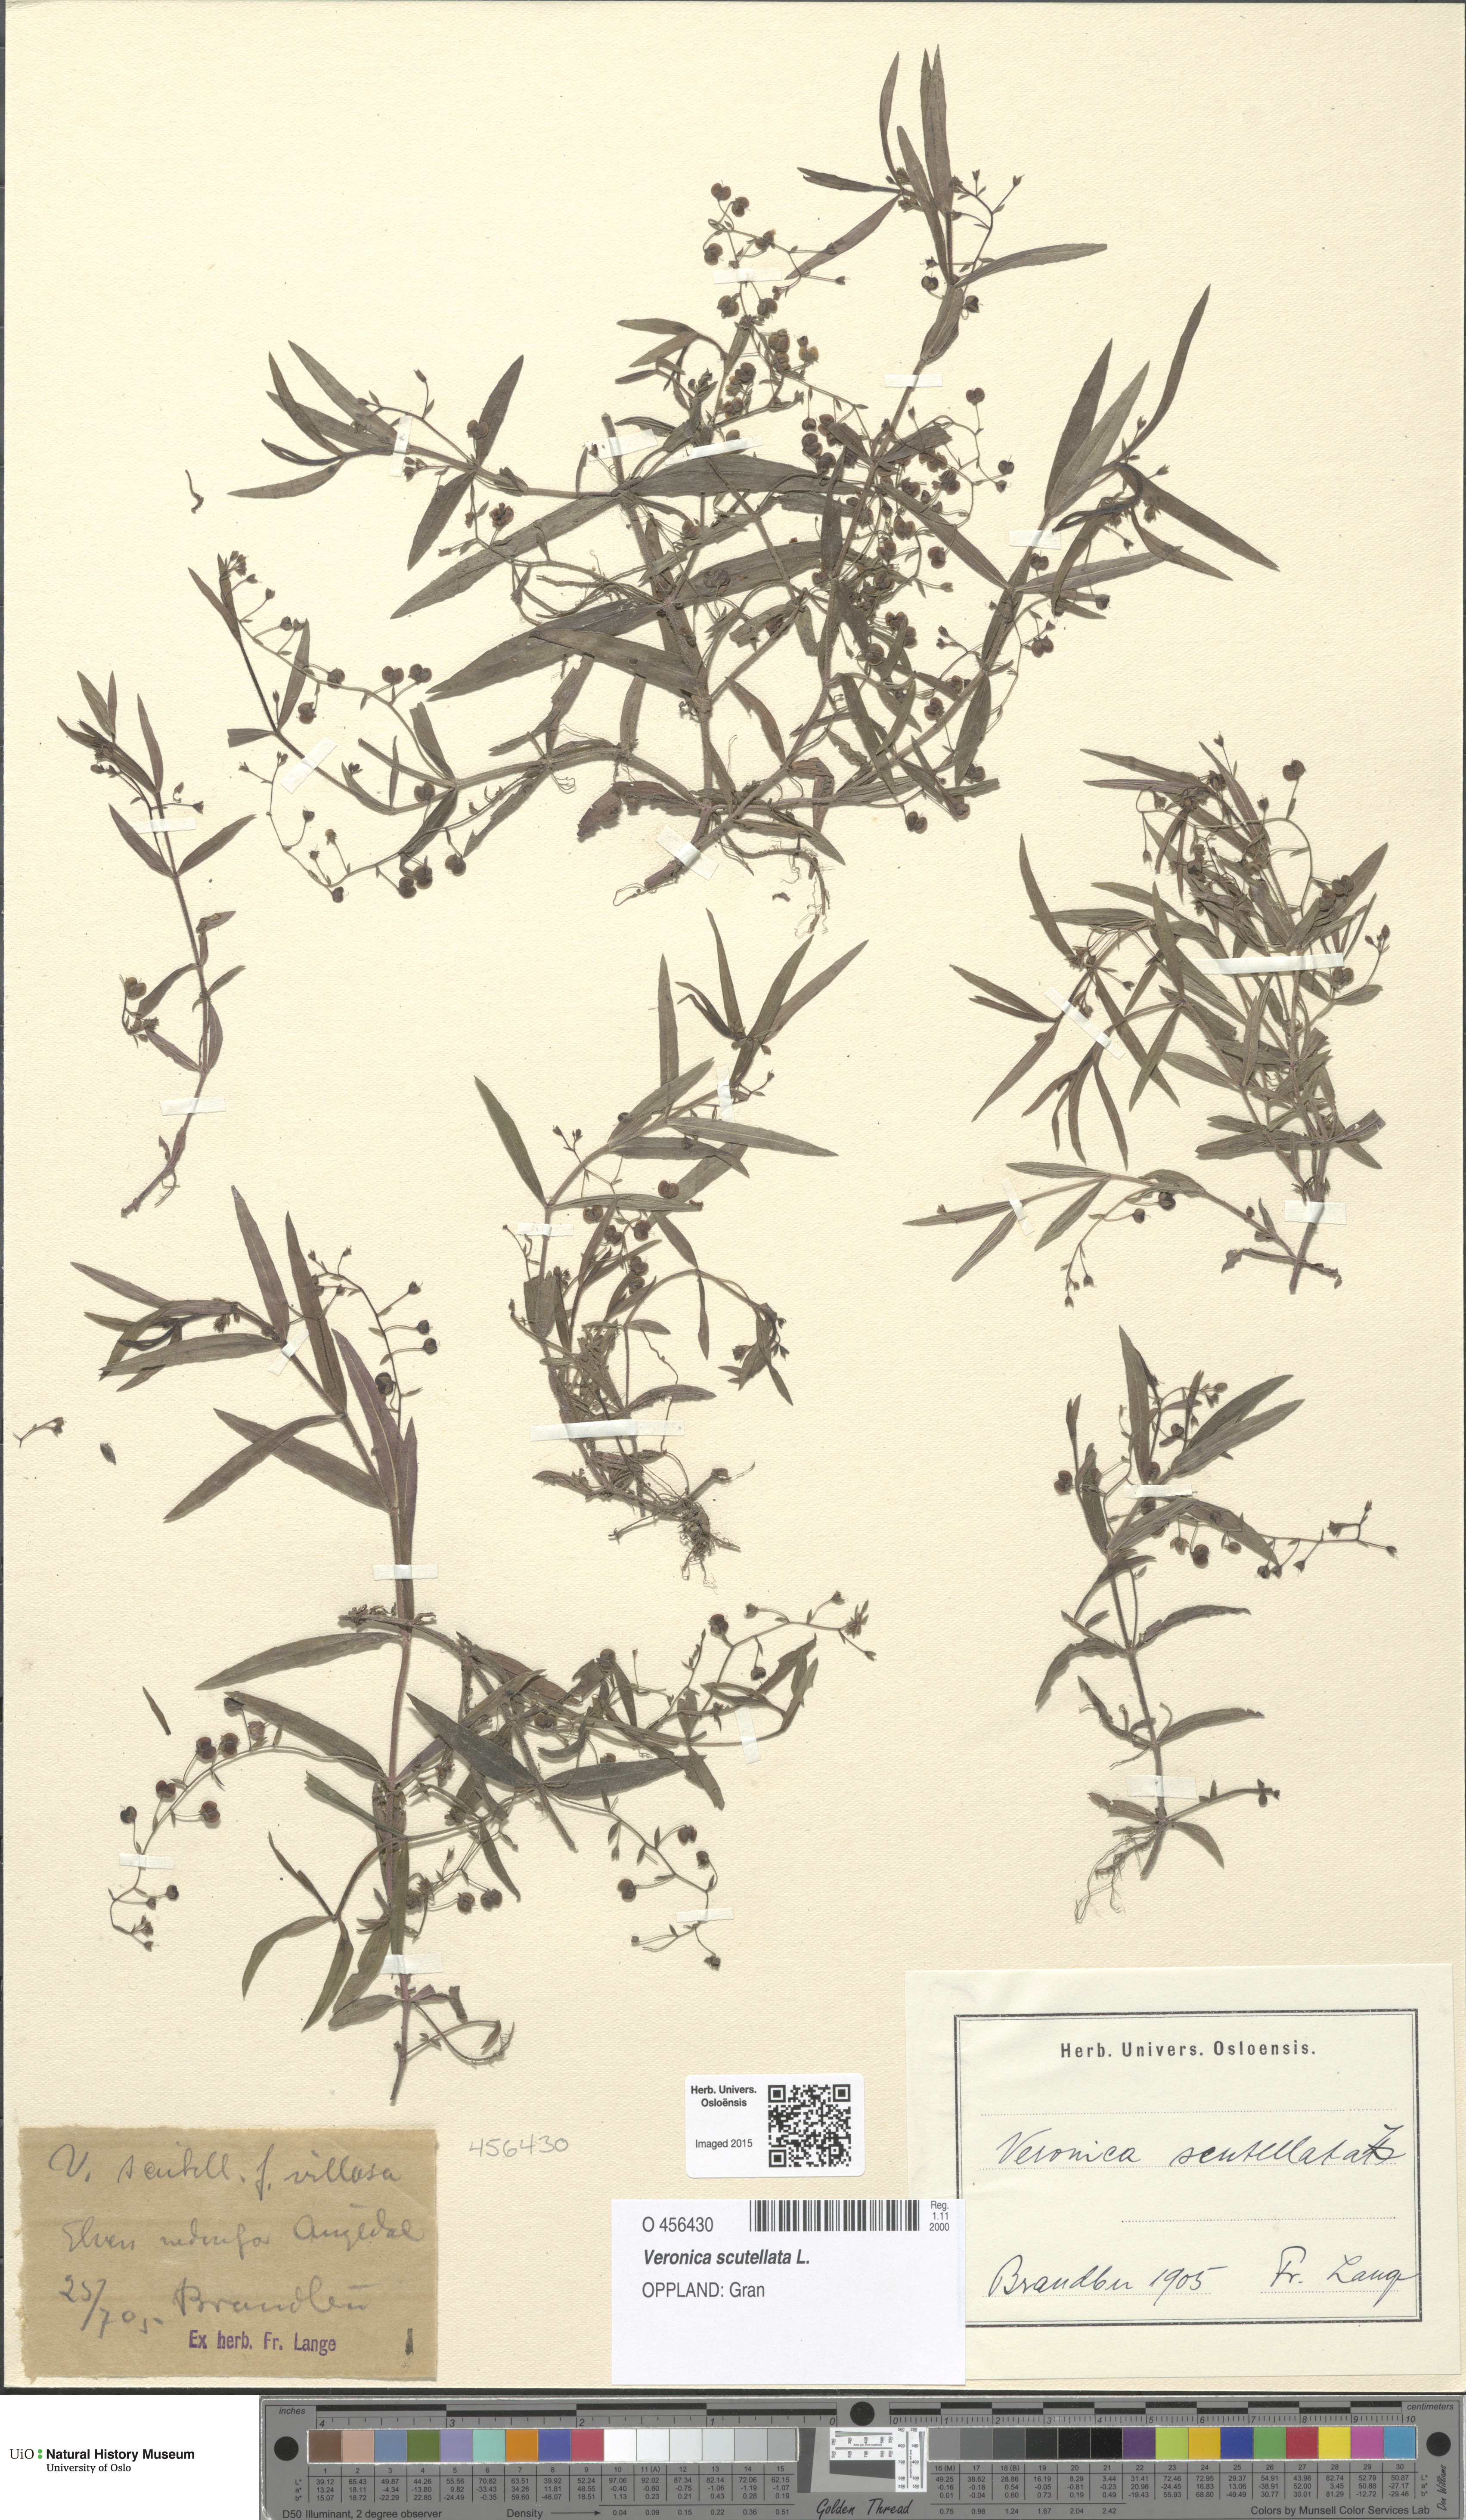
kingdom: Plantae
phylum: Tracheophyta
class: Magnoliopsida
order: Lamiales
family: Plantaginaceae
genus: Veronica
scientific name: Veronica scutellata
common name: Marsh speedwell
